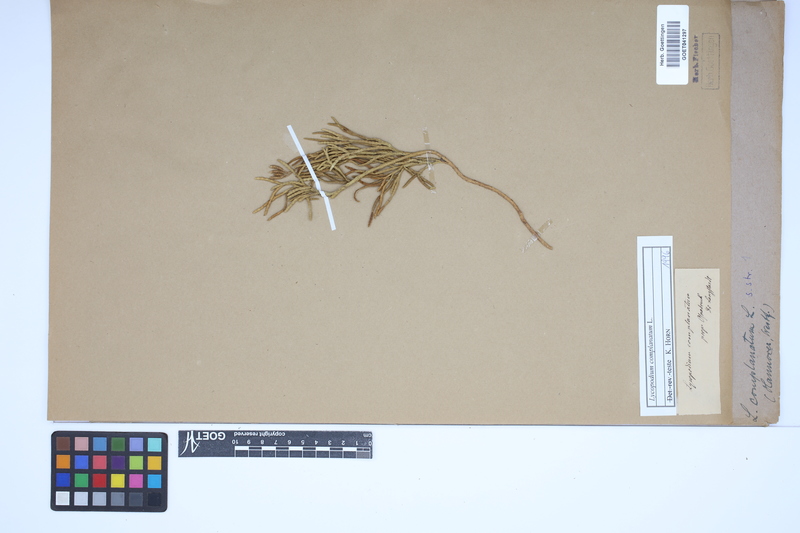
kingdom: Plantae
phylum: Tracheophyta
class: Lycopodiopsida
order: Lycopodiales
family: Lycopodiaceae
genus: Diphasiastrum
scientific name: Diphasiastrum complanatum
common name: Northern running-pine
